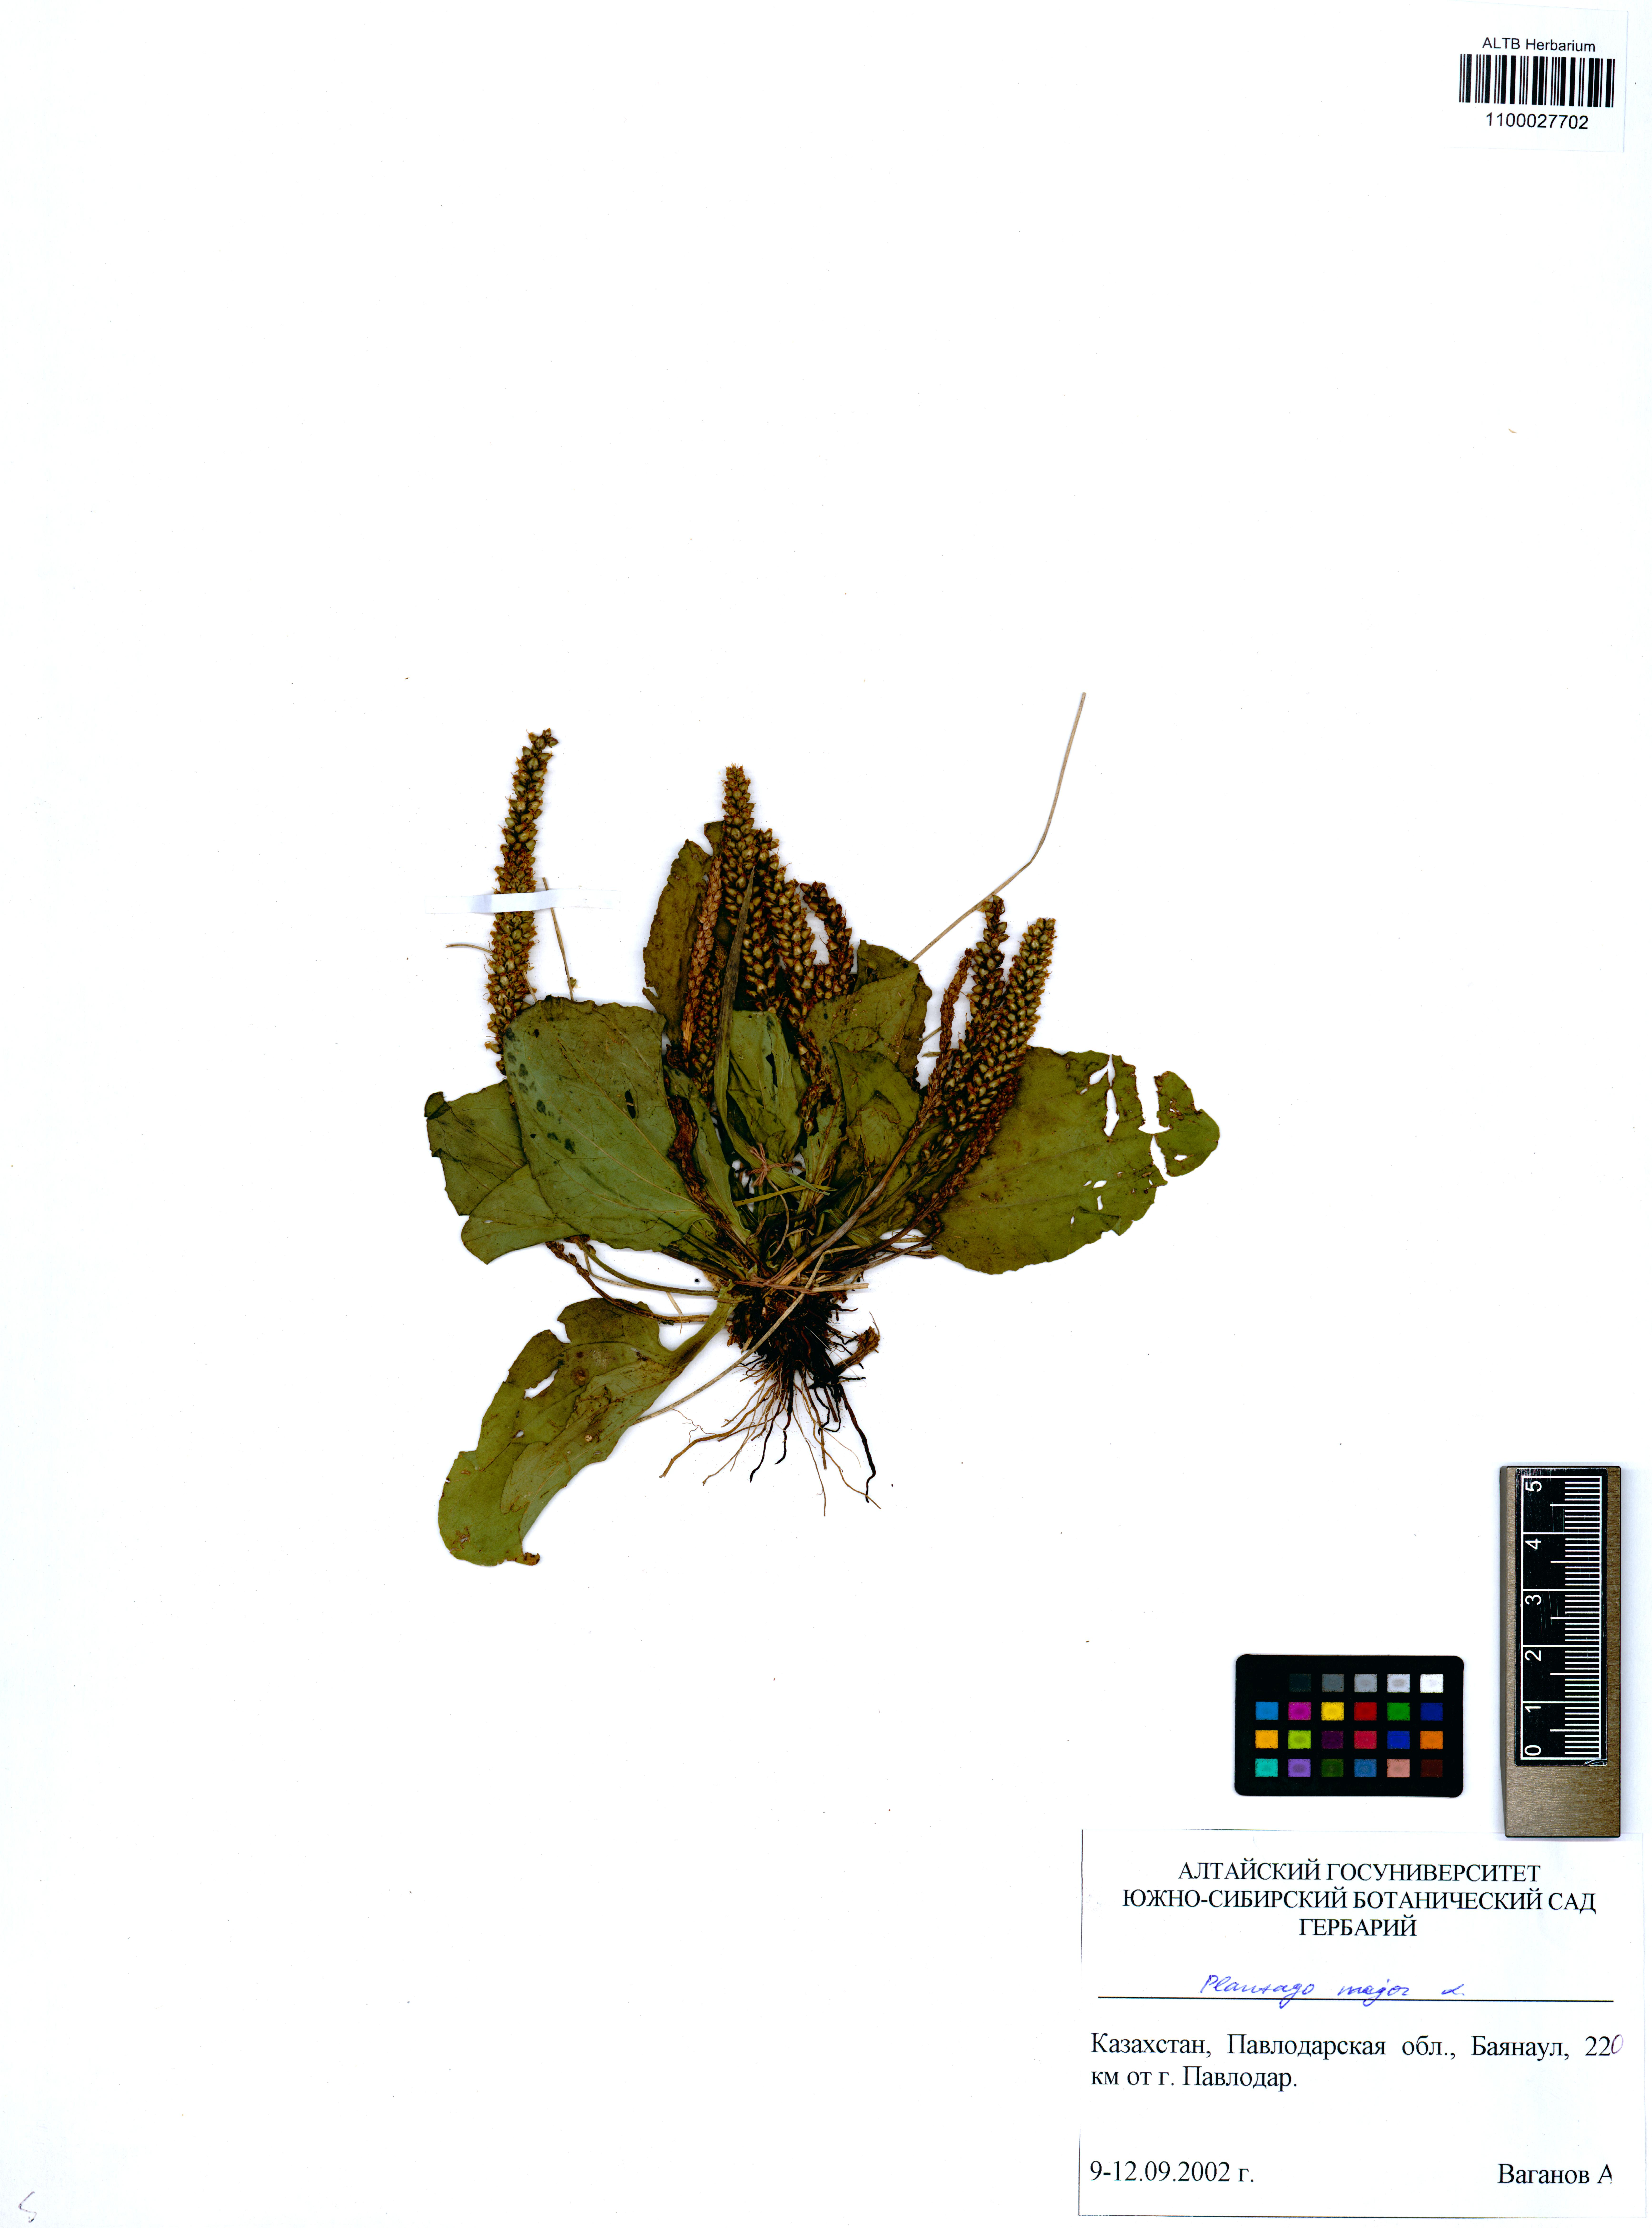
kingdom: Plantae
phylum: Tracheophyta
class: Magnoliopsida
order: Lamiales
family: Plantaginaceae
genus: Plantago
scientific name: Plantago major
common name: Common plantain
